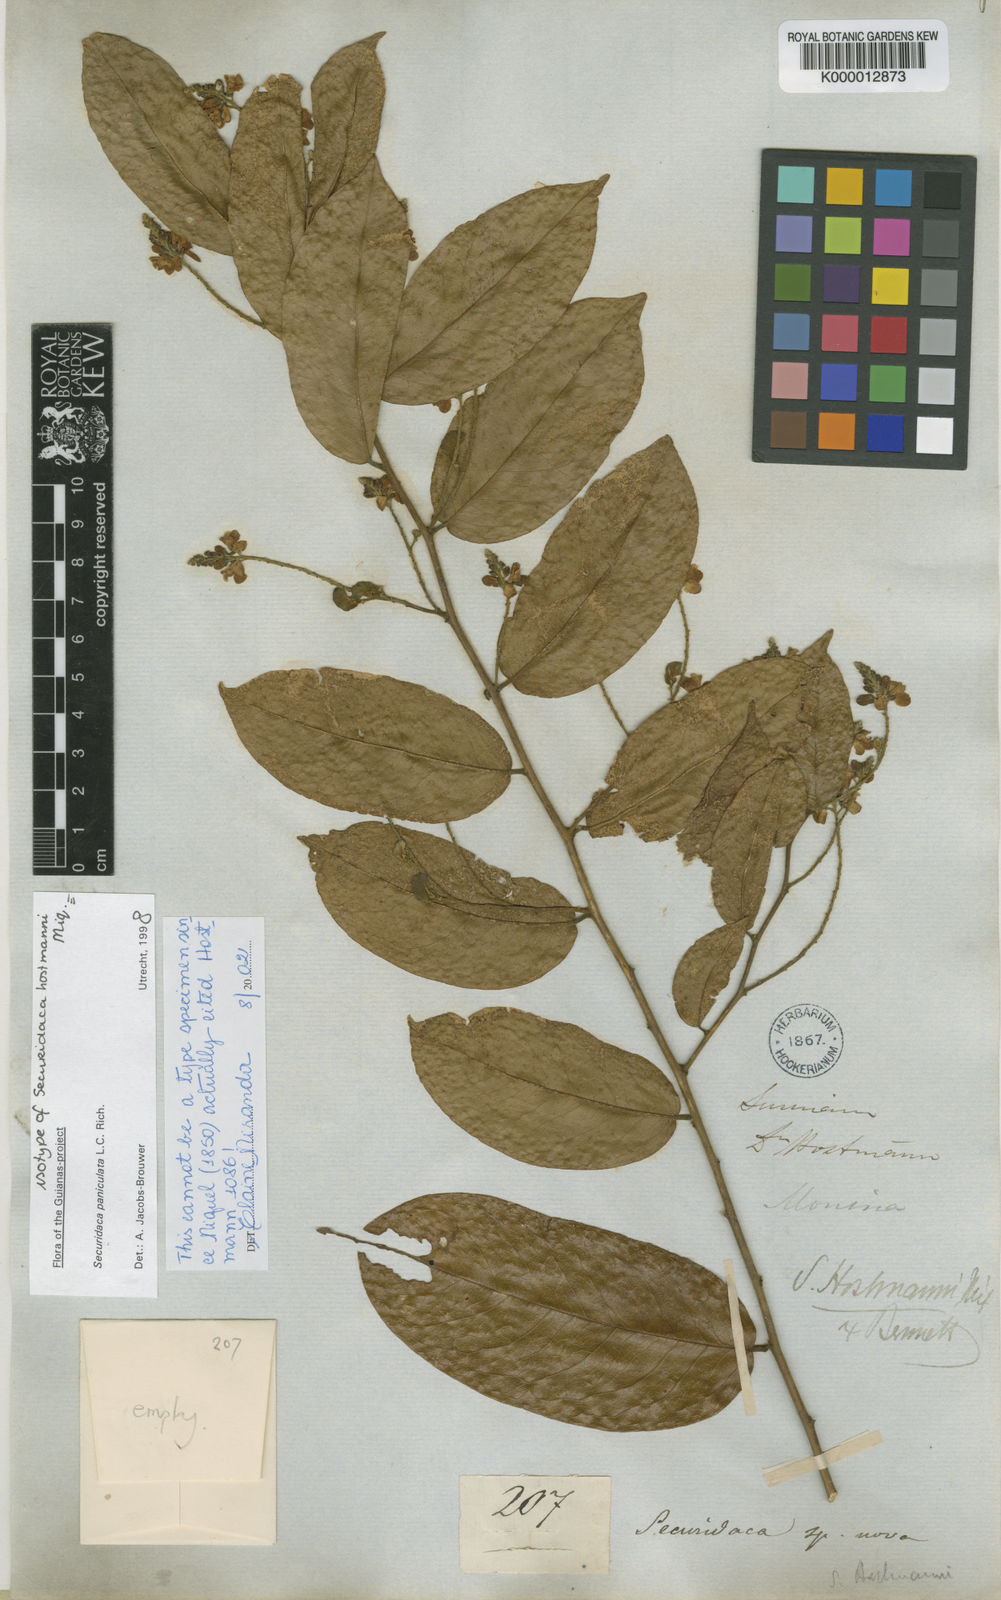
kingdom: Plantae
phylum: Tracheophyta
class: Magnoliopsida
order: Fabales
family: Polygalaceae
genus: Securidaca
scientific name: Securidaca paniculata
